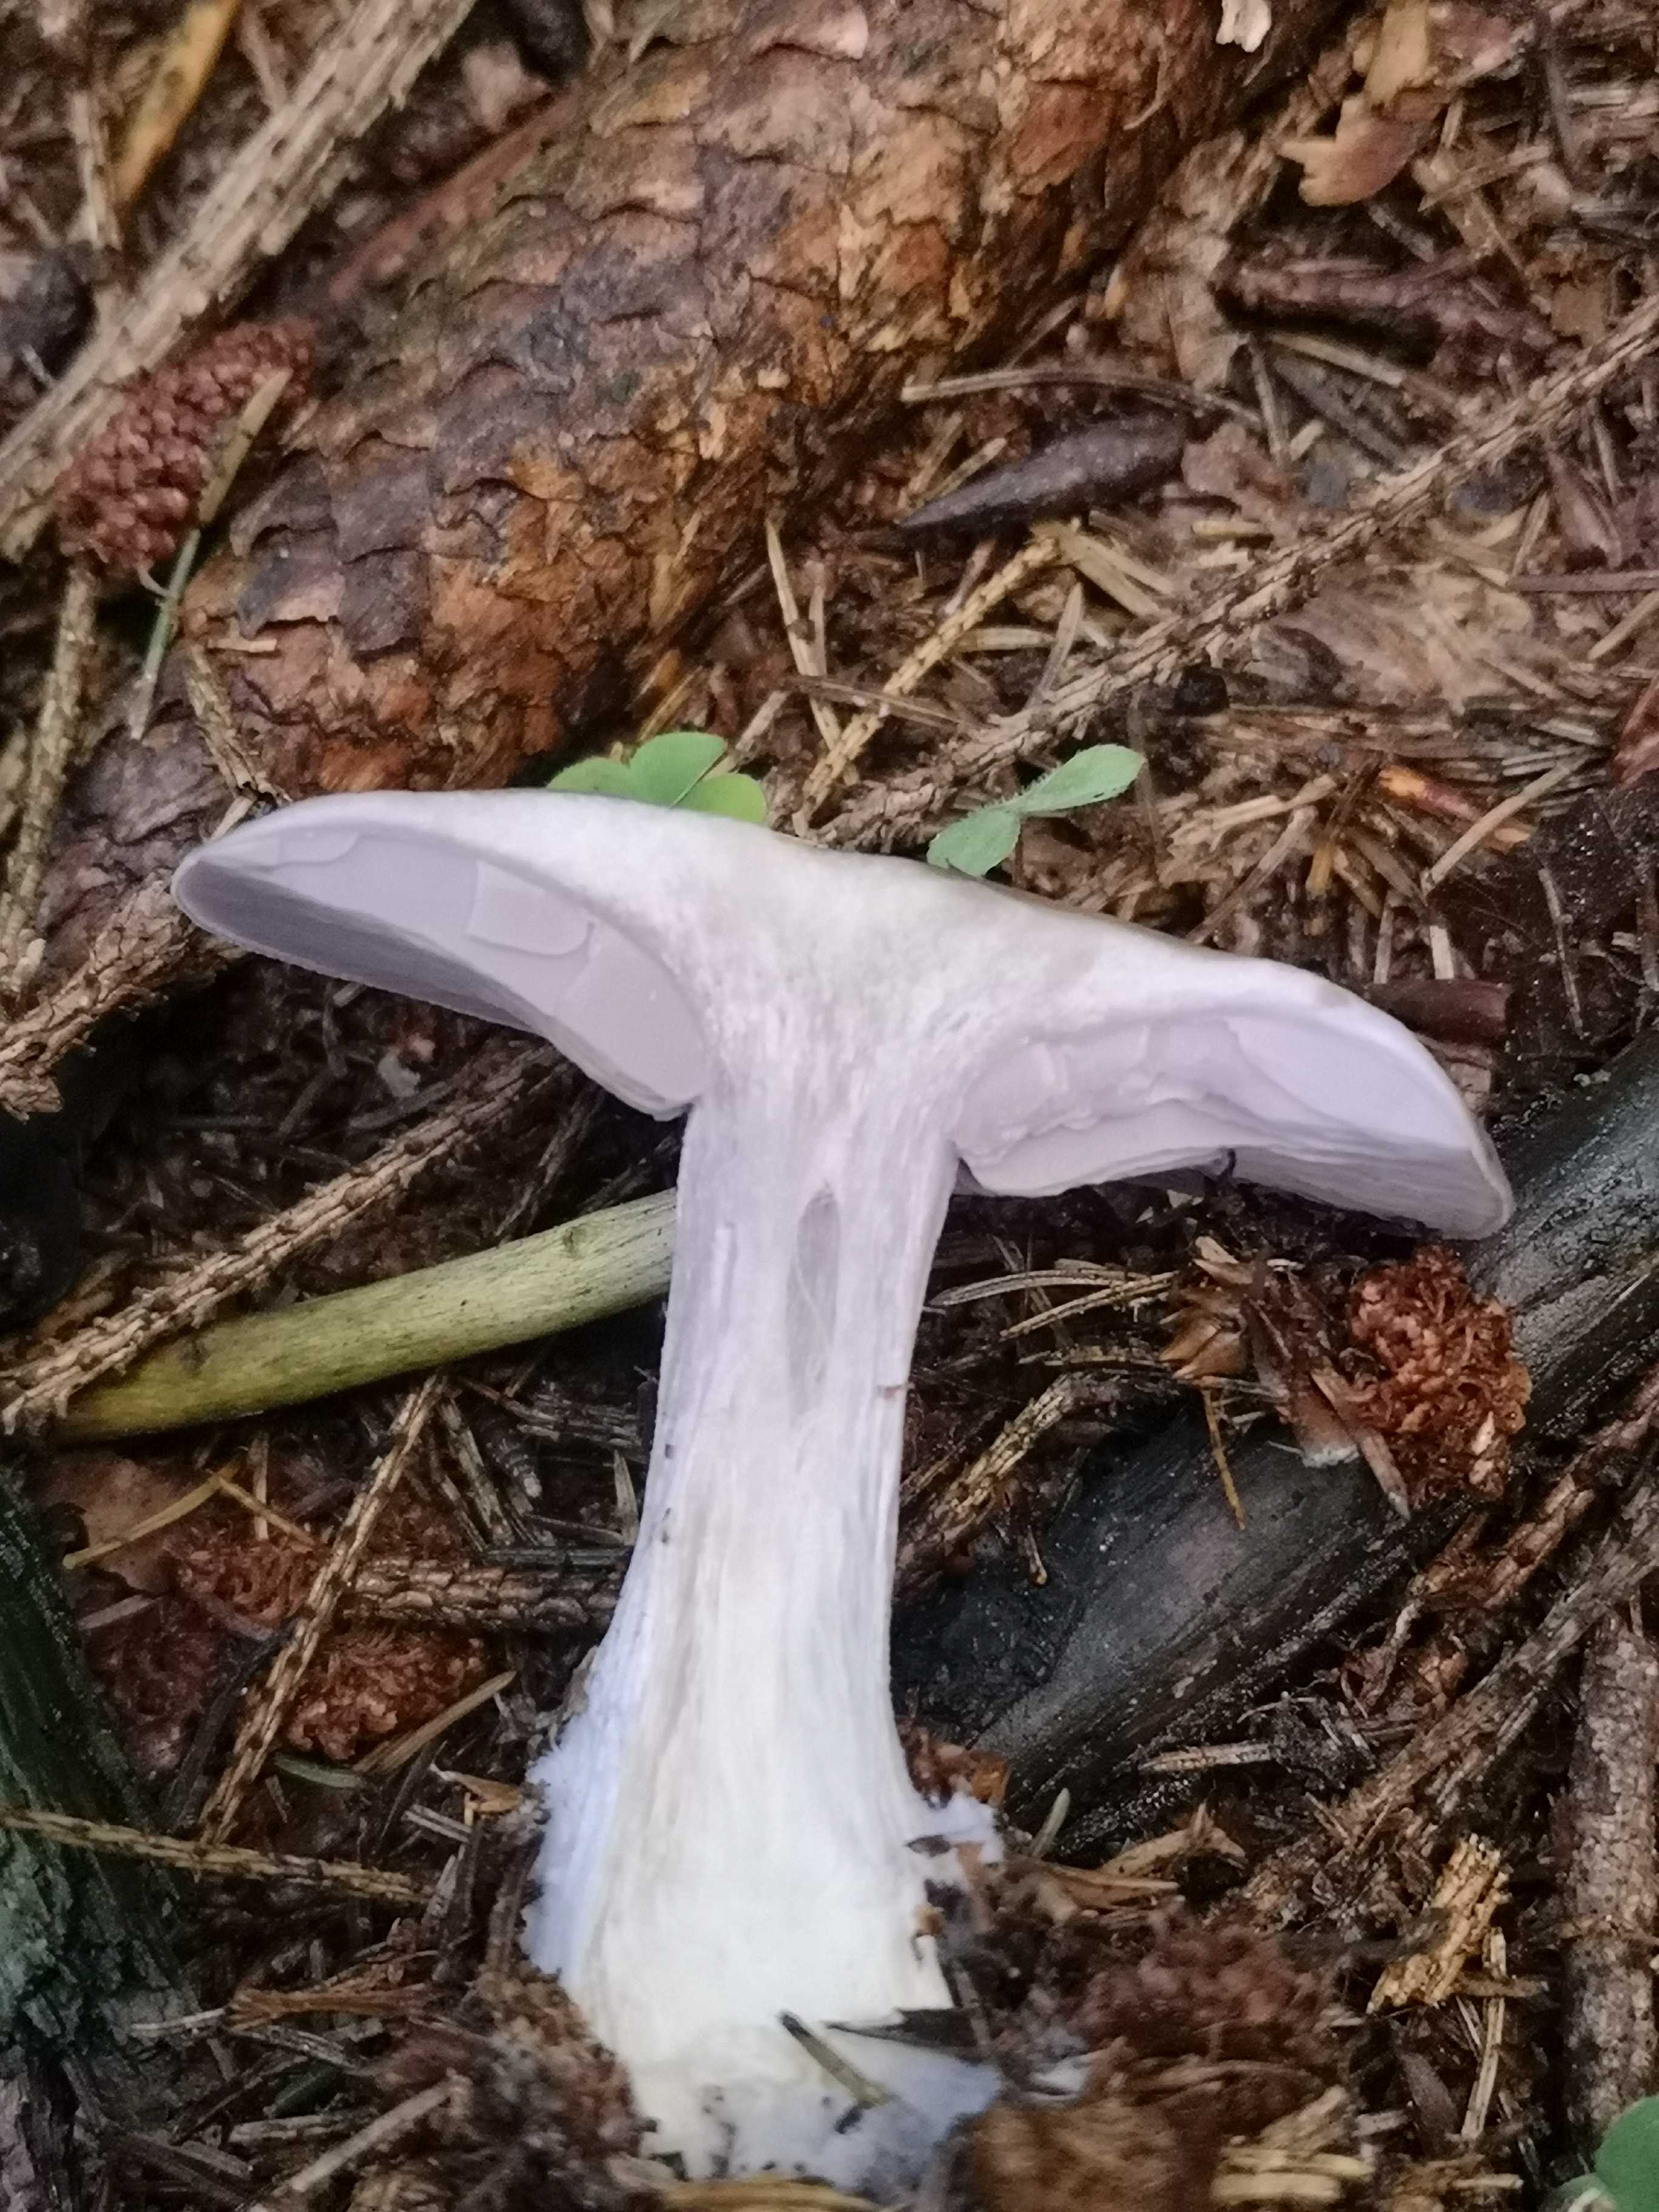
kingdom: Fungi
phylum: Basidiomycota
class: Agaricomycetes
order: Agaricales
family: Tricholomataceae
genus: Lepista
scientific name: Lepista nuda
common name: violet hekseringshat
